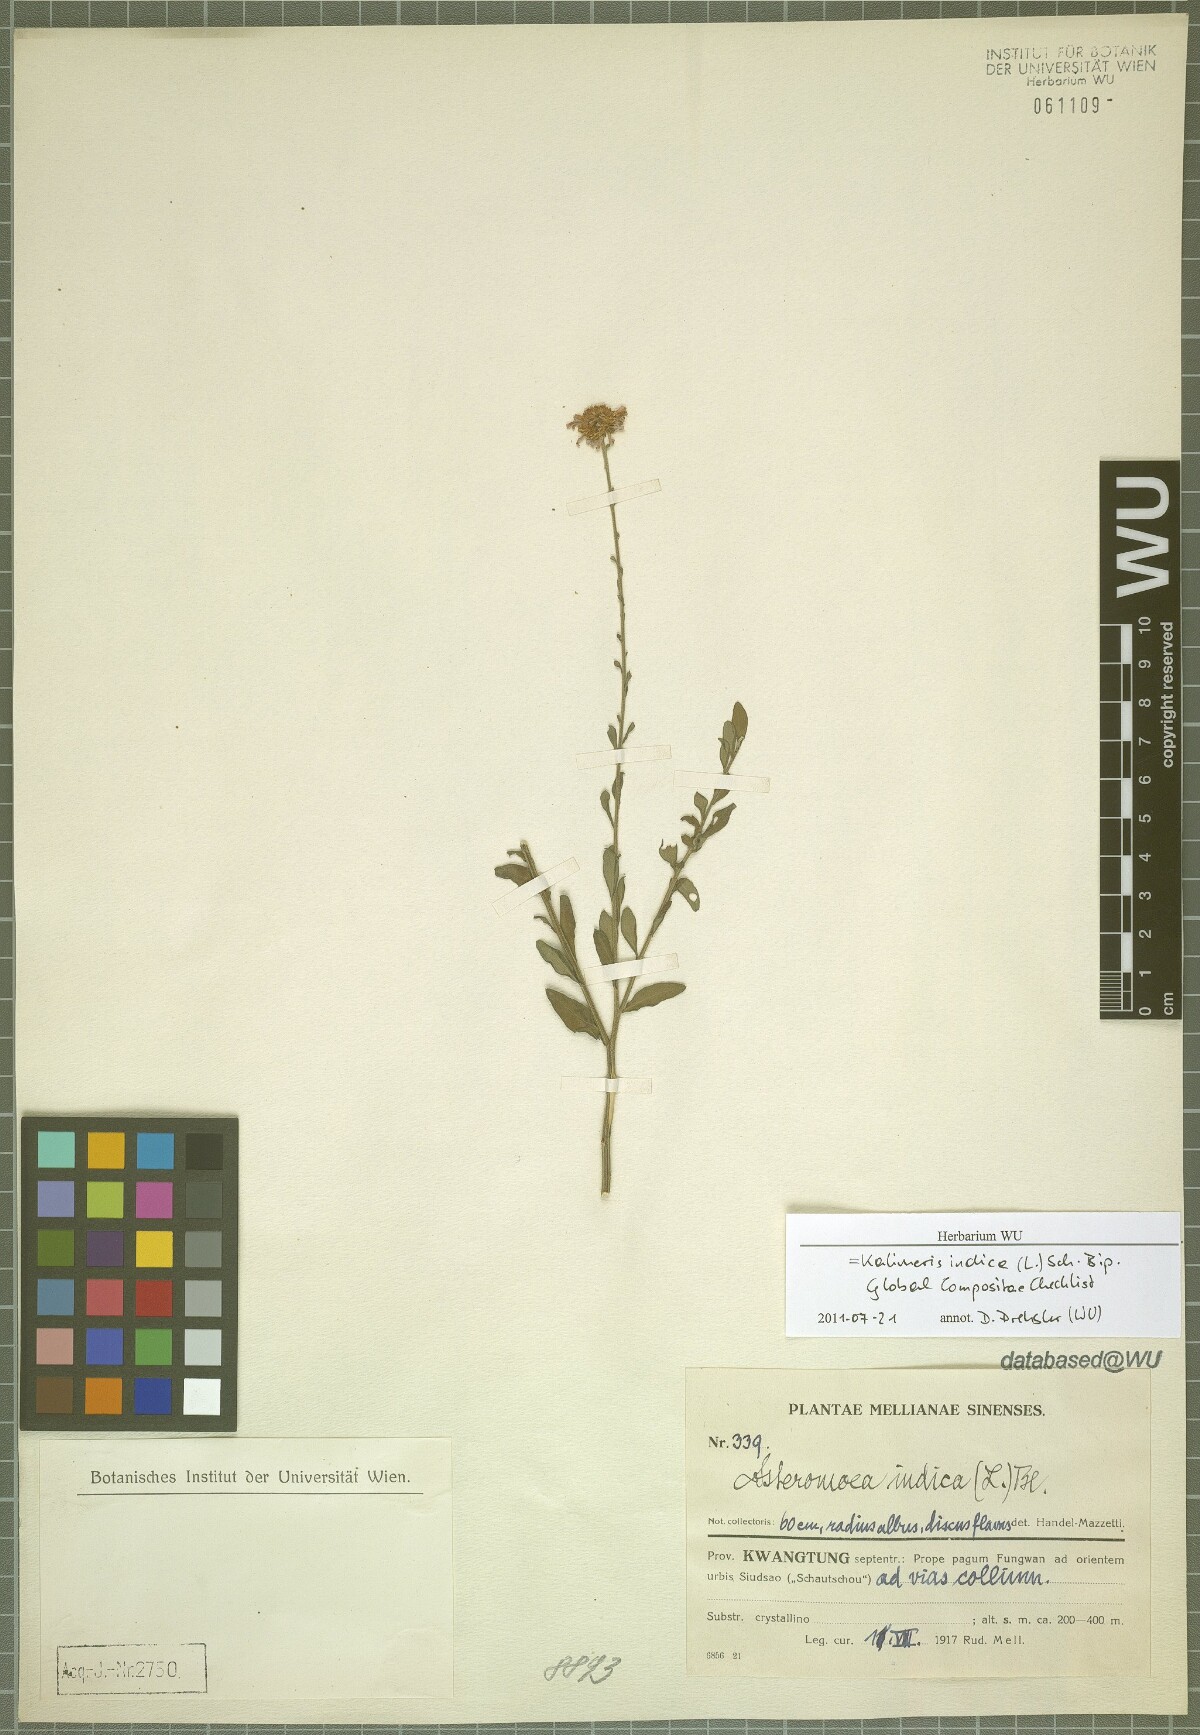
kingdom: Plantae
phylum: Tracheophyta
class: Magnoliopsida
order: Asterales
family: Asteraceae
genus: Kalimeris
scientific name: Kalimeris indica
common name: Indian aster
